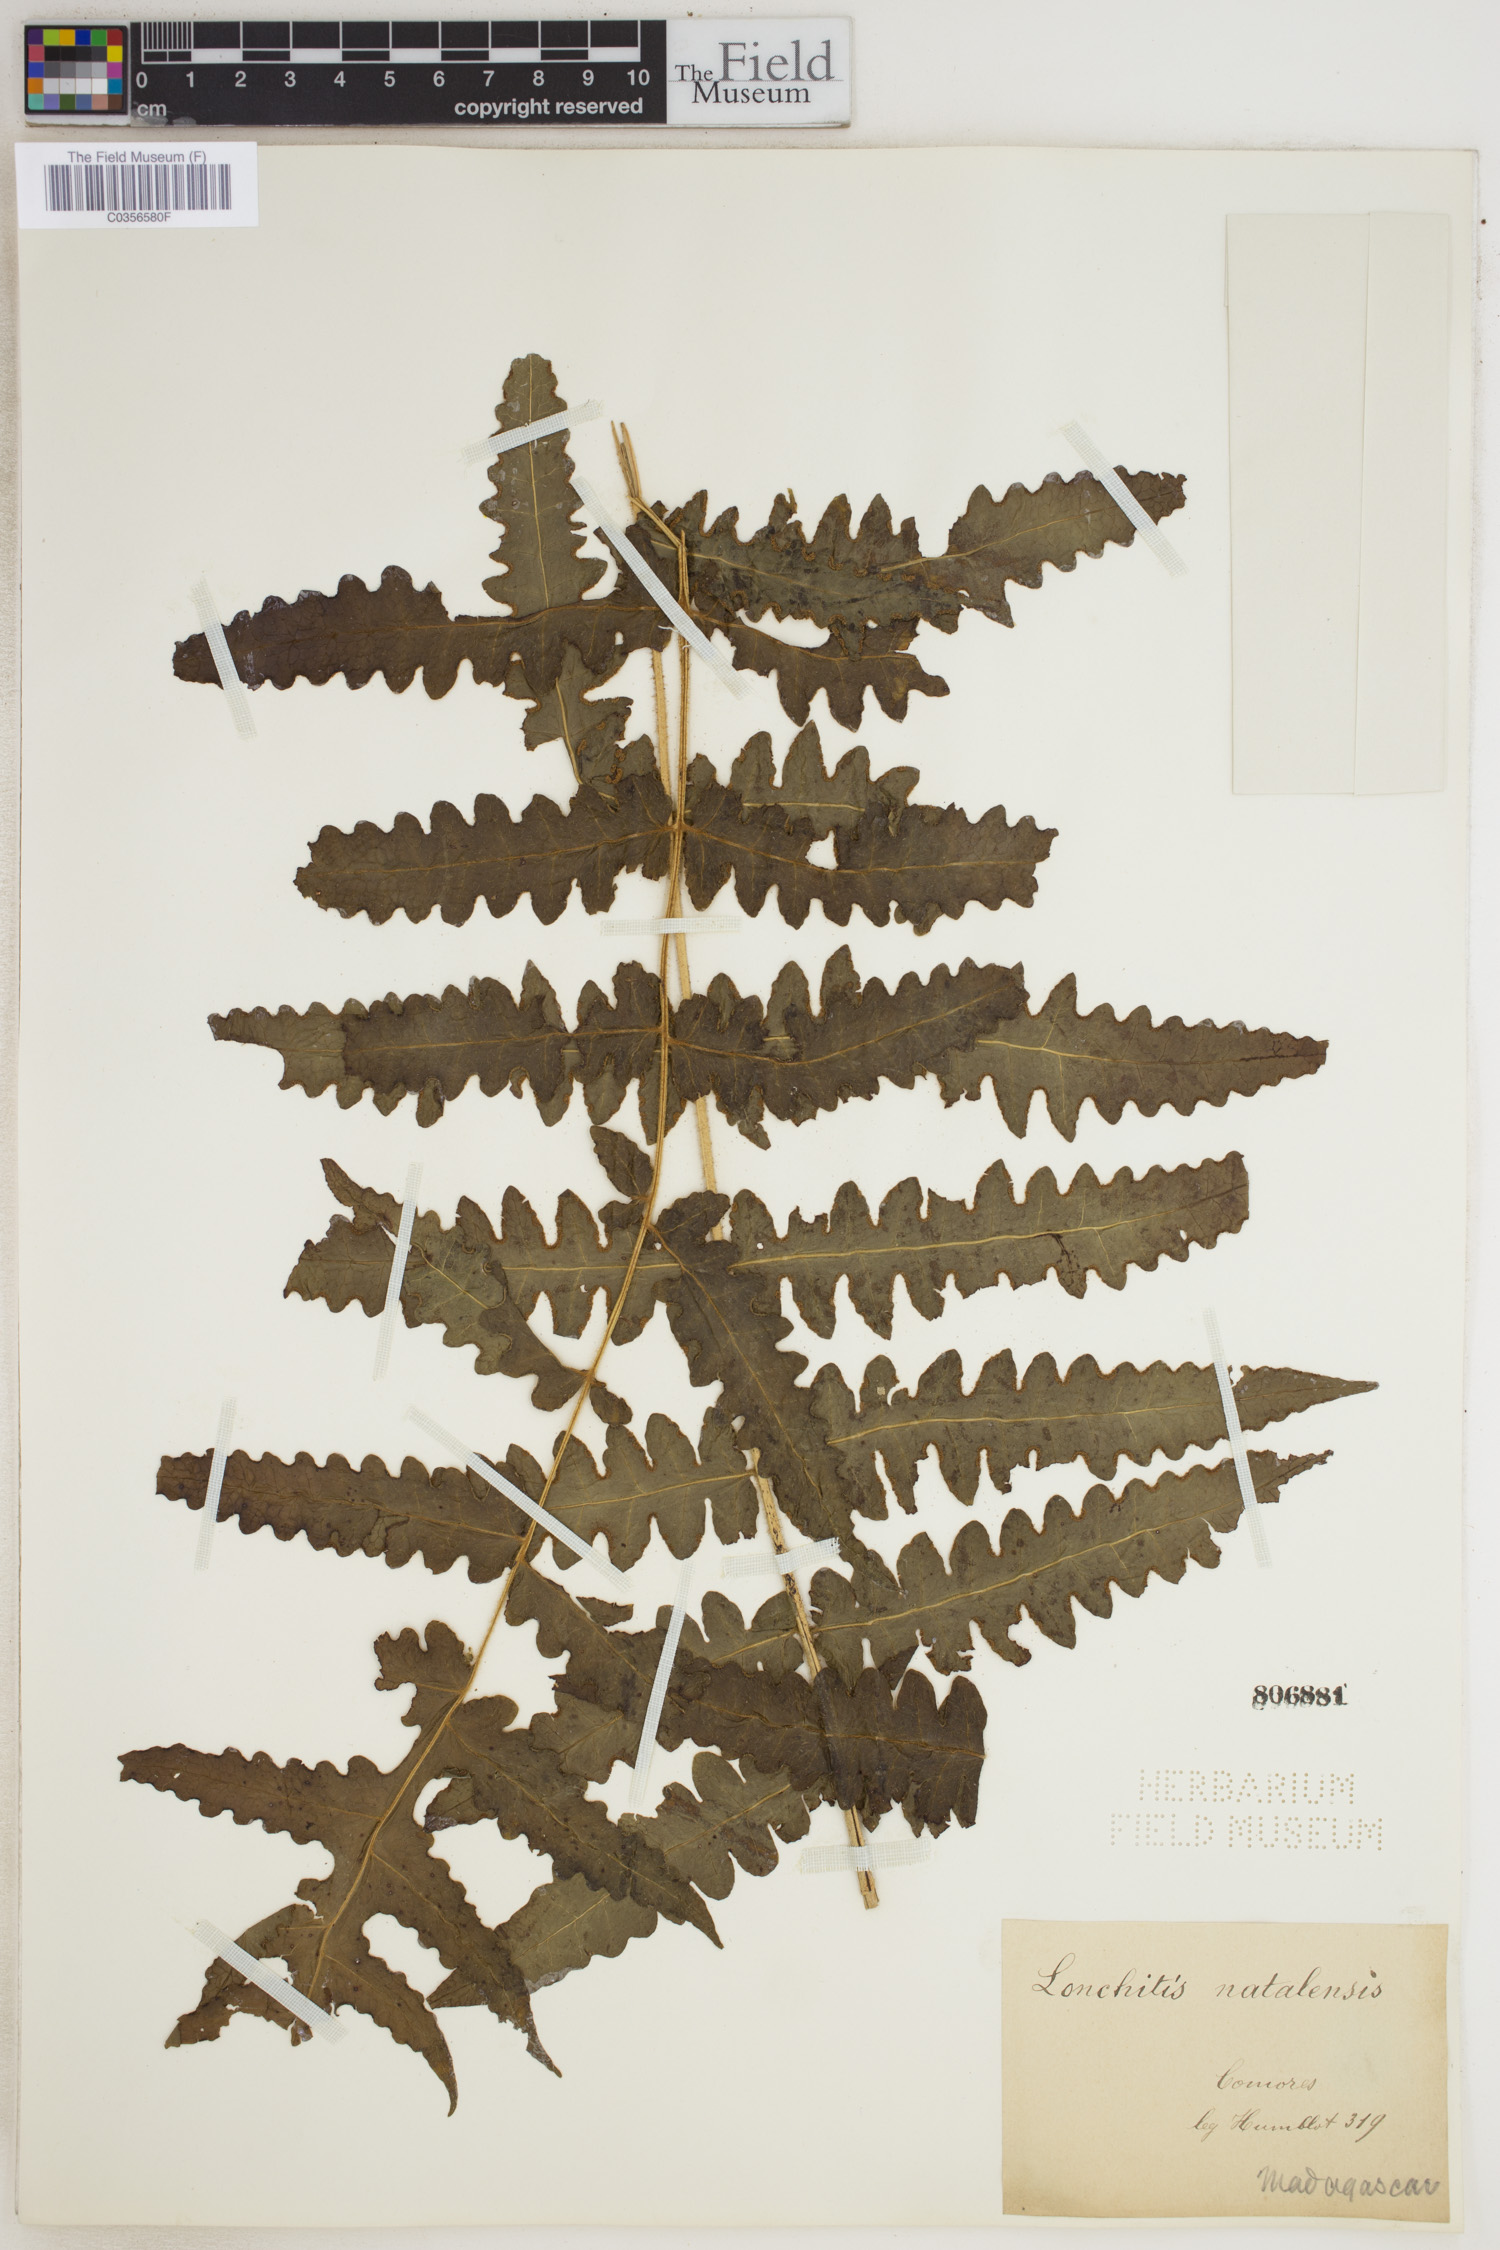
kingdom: Plantae
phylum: Tracheophyta
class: Polypodiopsida
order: Polypodiales
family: Dennstaedtiaceae
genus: Blotiella
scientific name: Blotiella natalensis
